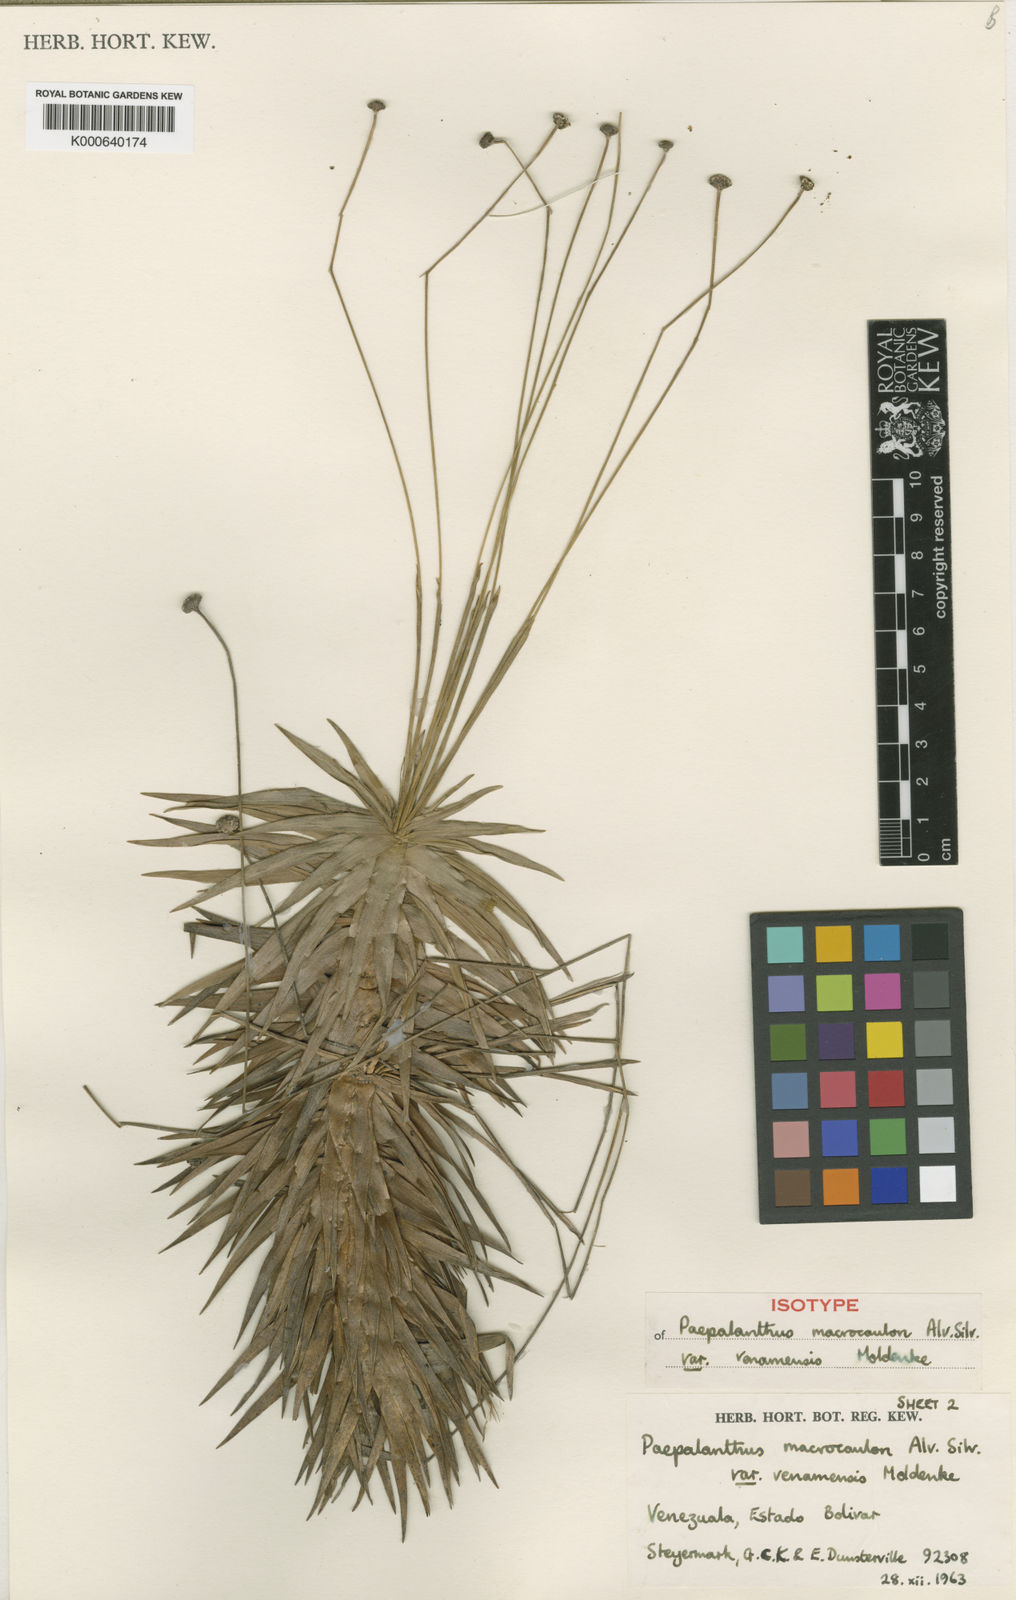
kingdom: Plantae
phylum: Tracheophyta
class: Liliopsida
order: Poales
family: Eriocaulaceae
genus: Paepalanthus
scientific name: Paepalanthus schomburgkii
